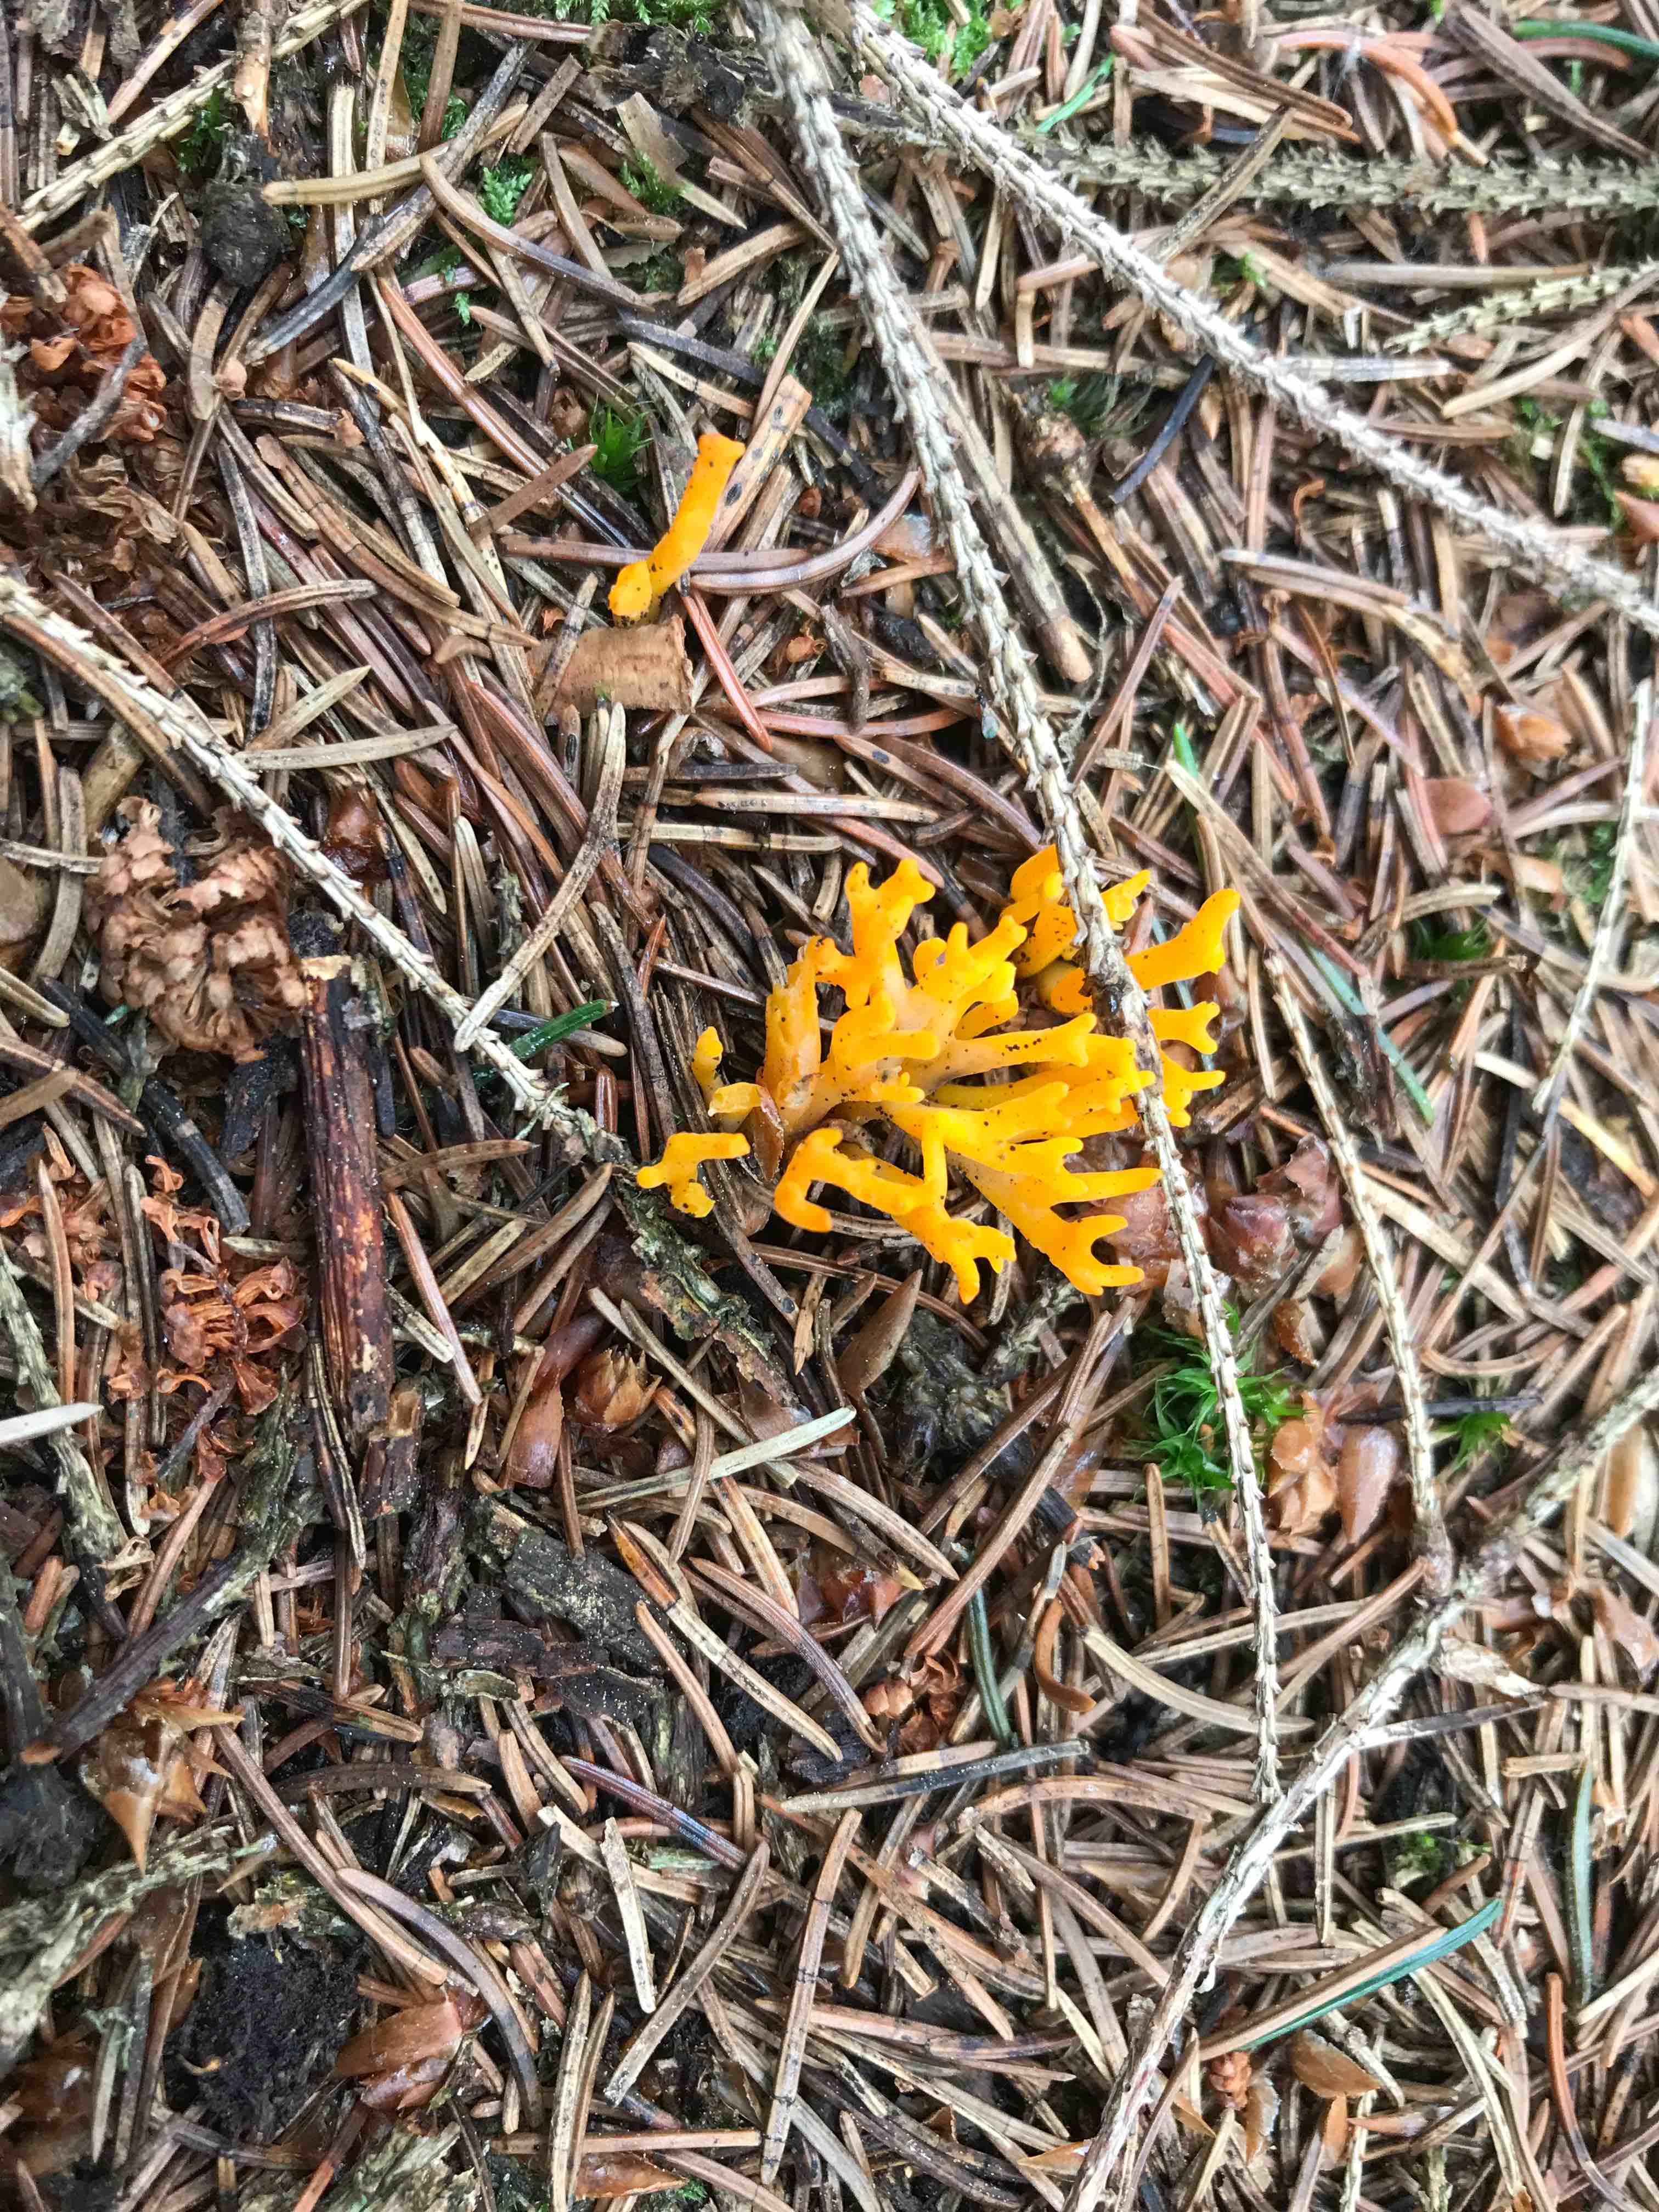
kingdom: Fungi
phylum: Basidiomycota
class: Dacrymycetes
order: Dacrymycetales
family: Dacrymycetaceae
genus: Calocera
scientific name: Calocera viscosa
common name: almindelig guldgaffel
